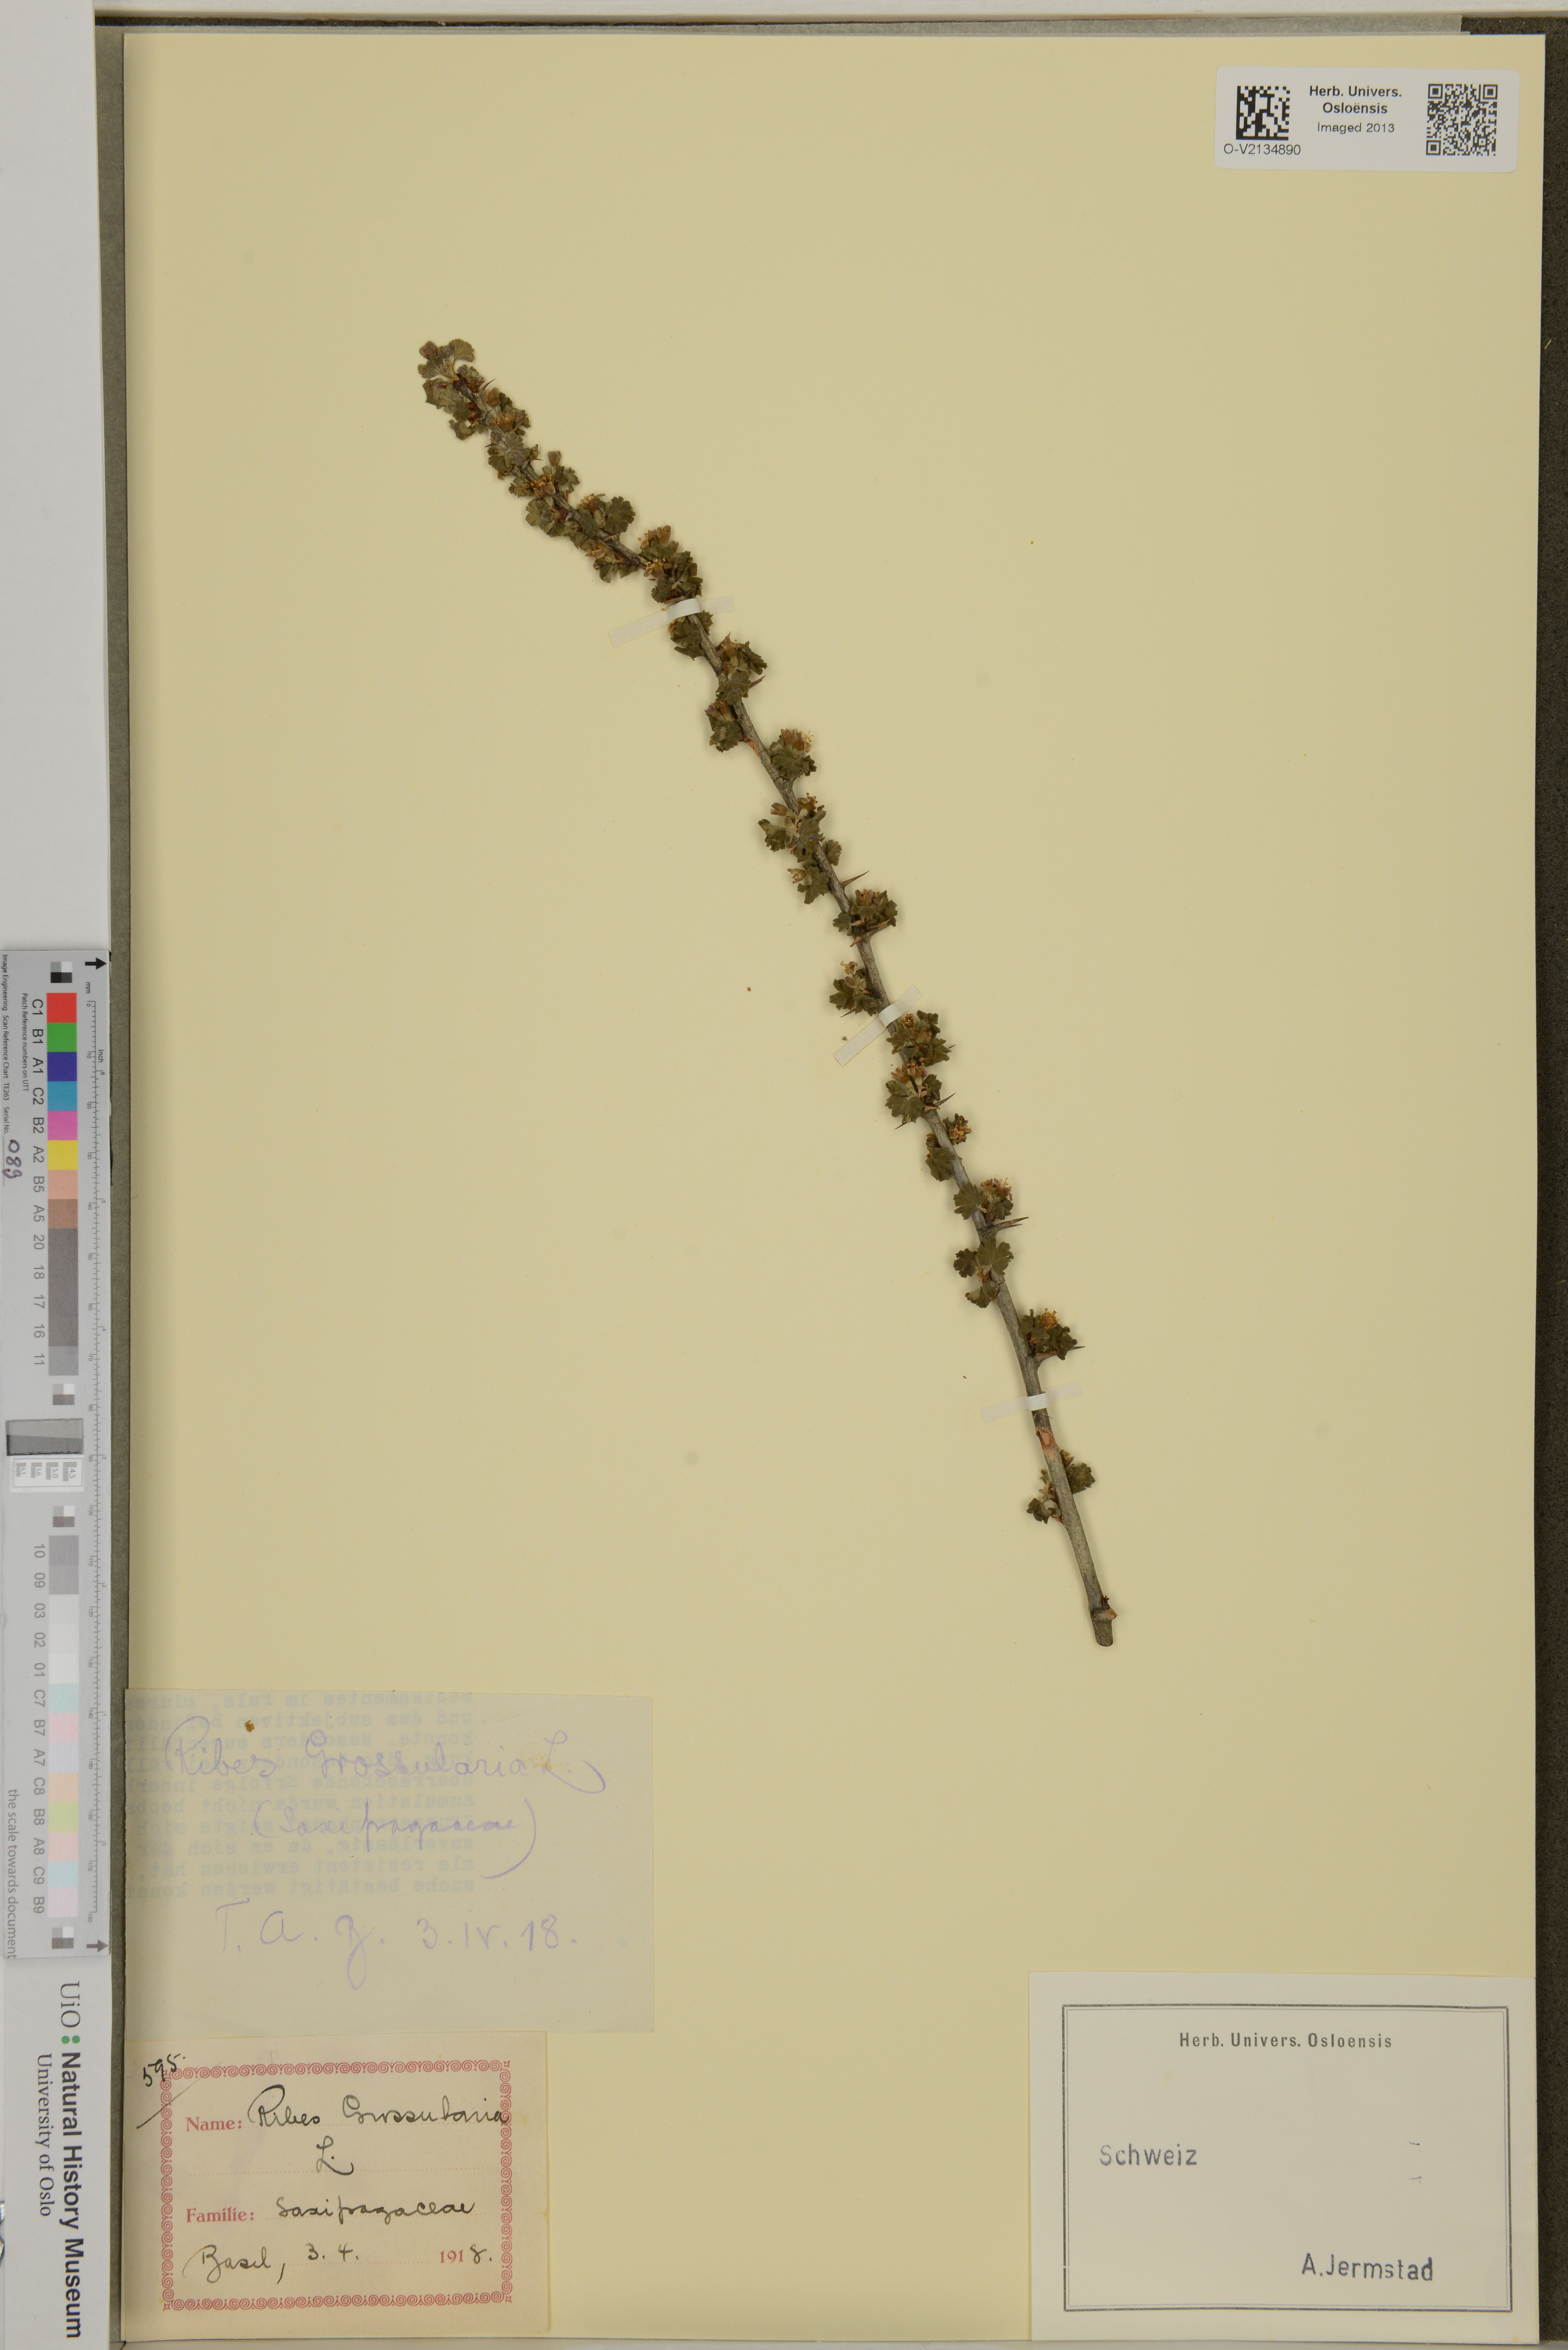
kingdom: Plantae
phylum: Tracheophyta
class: Magnoliopsida
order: Saxifragales
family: Grossulariaceae
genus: Ribes
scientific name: Ribes uva-crispa
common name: Gooseberry
